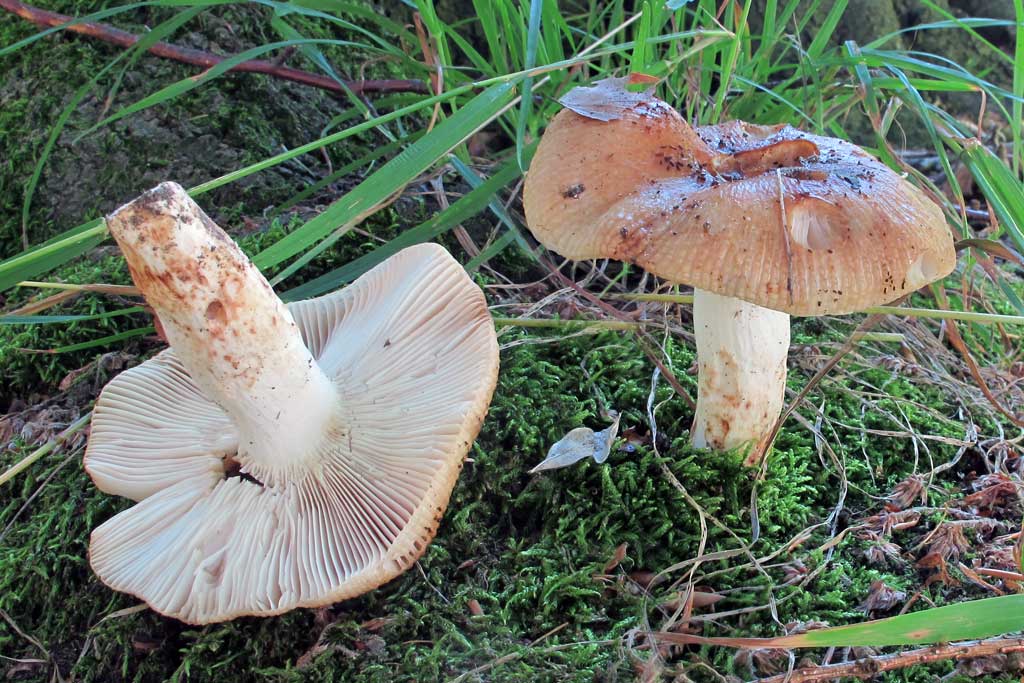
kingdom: Fungi
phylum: Basidiomycota
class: Agaricomycetes
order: Russulales
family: Russulaceae
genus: Russula
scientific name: Russula grata
